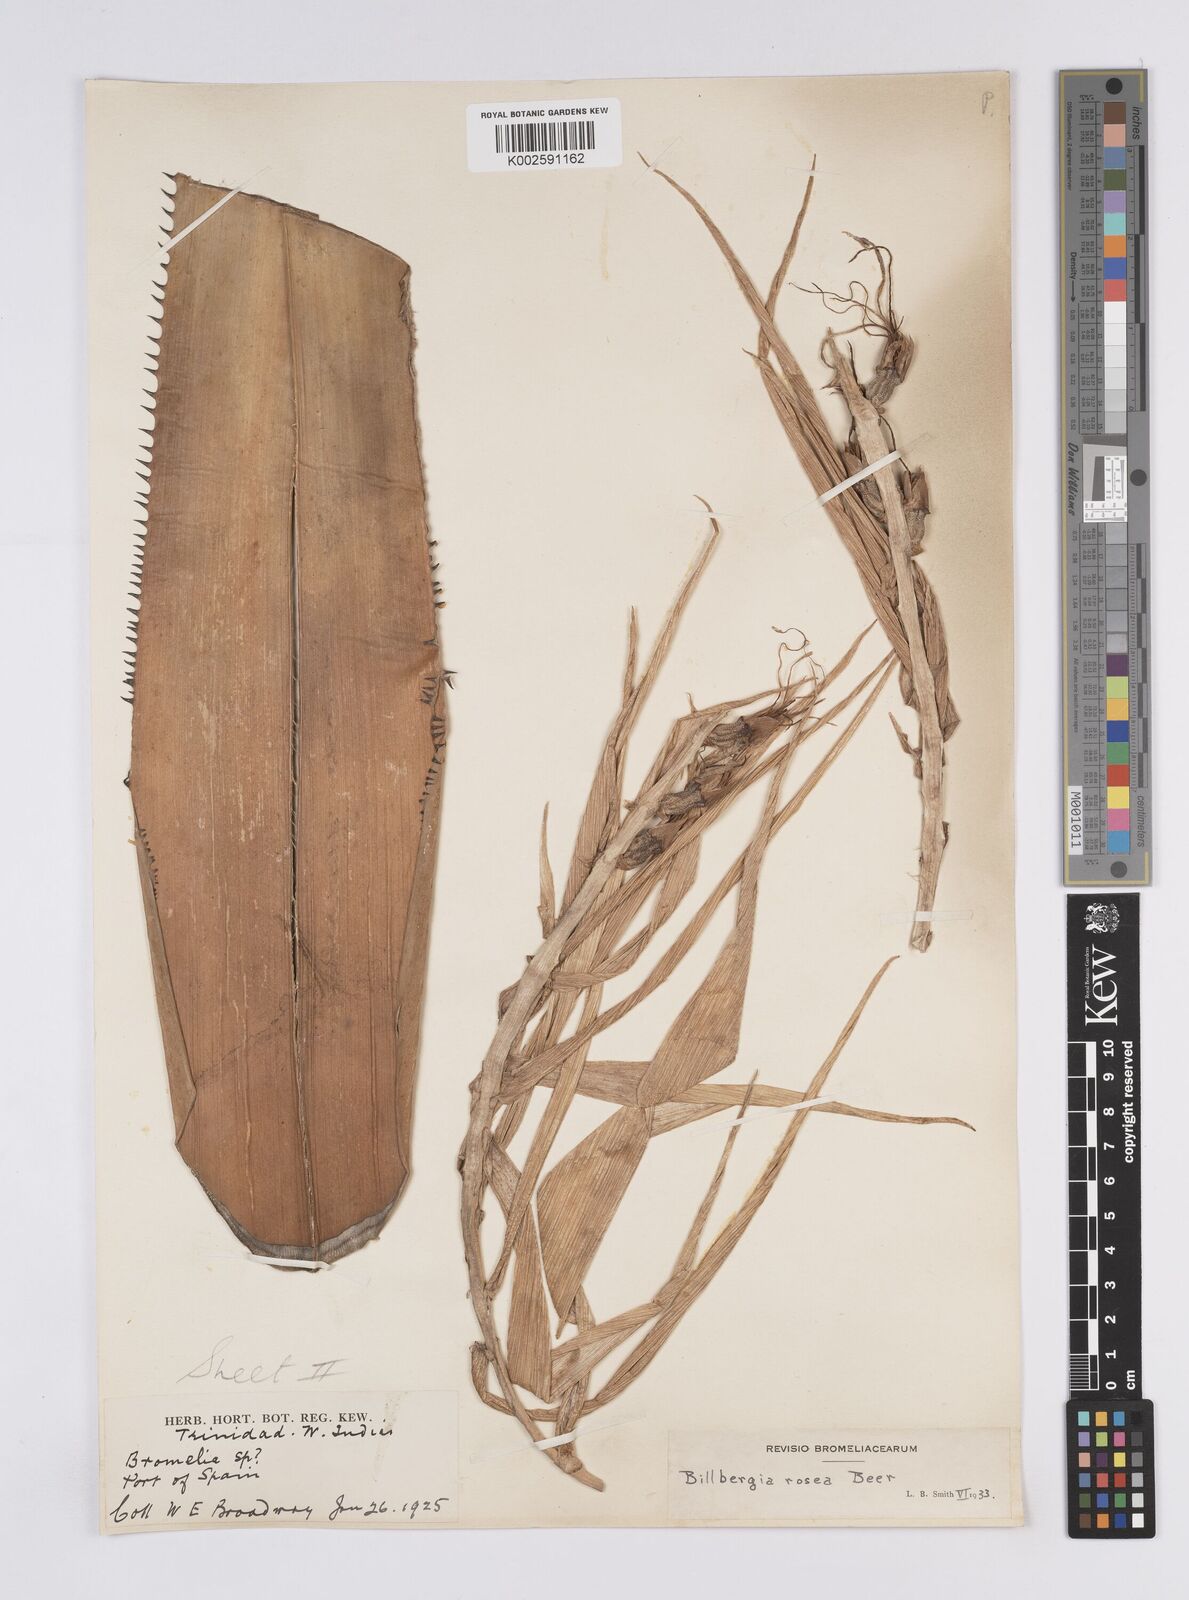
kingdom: Plantae
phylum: Tracheophyta
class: Liliopsida
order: Poales
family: Bromeliaceae
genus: Billbergia
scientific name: Billbergia rosea
